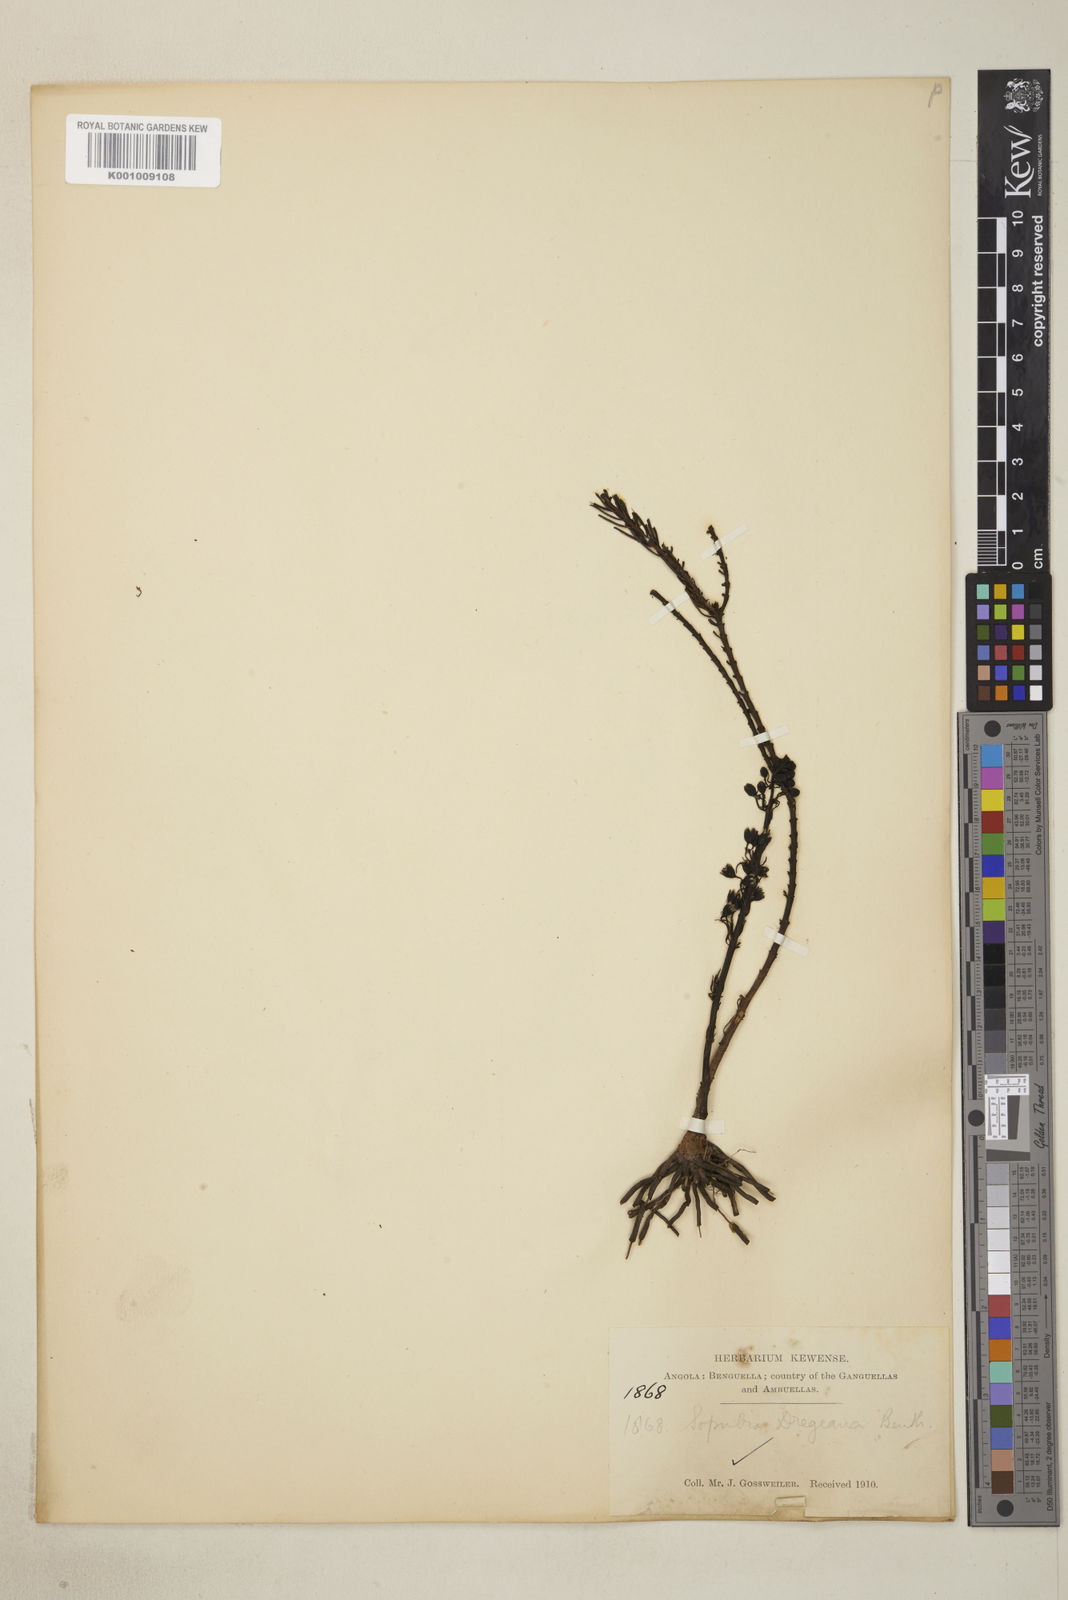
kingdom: Plantae
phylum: Tracheophyta
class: Magnoliopsida
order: Lamiales
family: Orobanchaceae
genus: Sopubia
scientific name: Sopubia mannii
